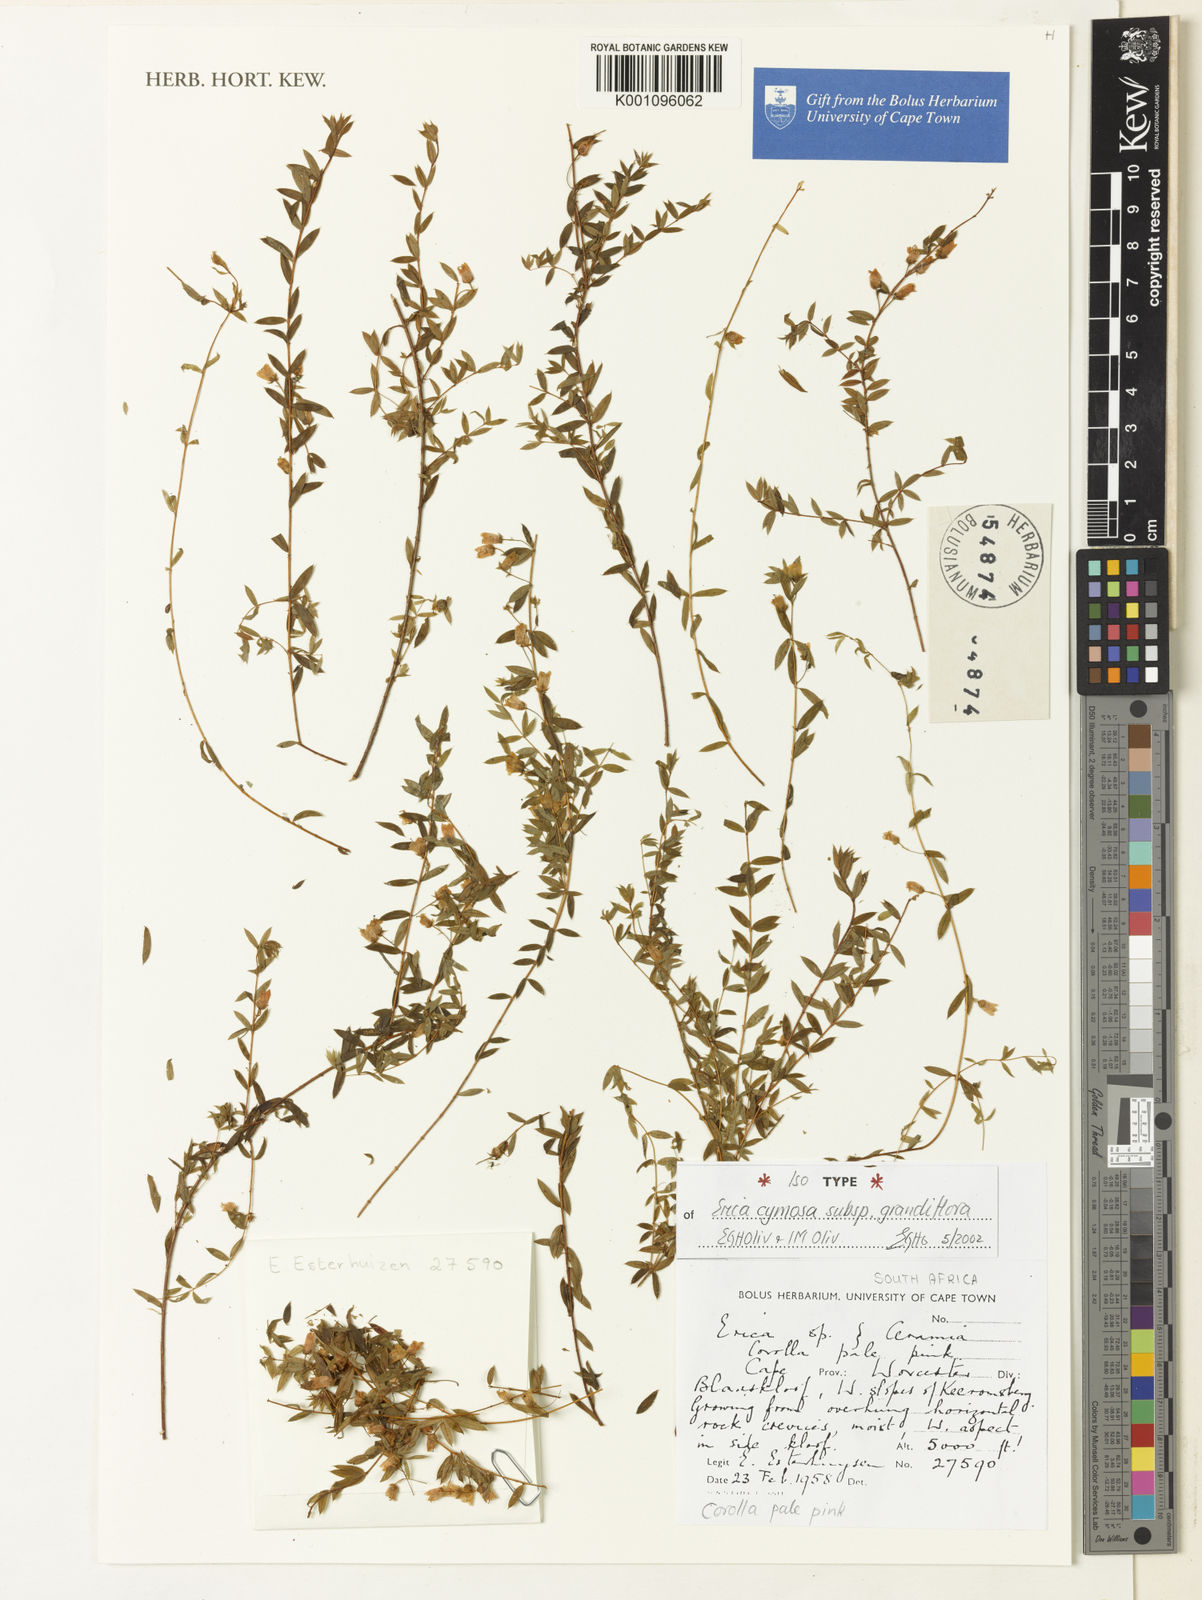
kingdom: Plantae
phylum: Tracheophyta
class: Magnoliopsida
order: Ericales
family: Ericaceae
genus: Erica
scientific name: Erica cymosa
